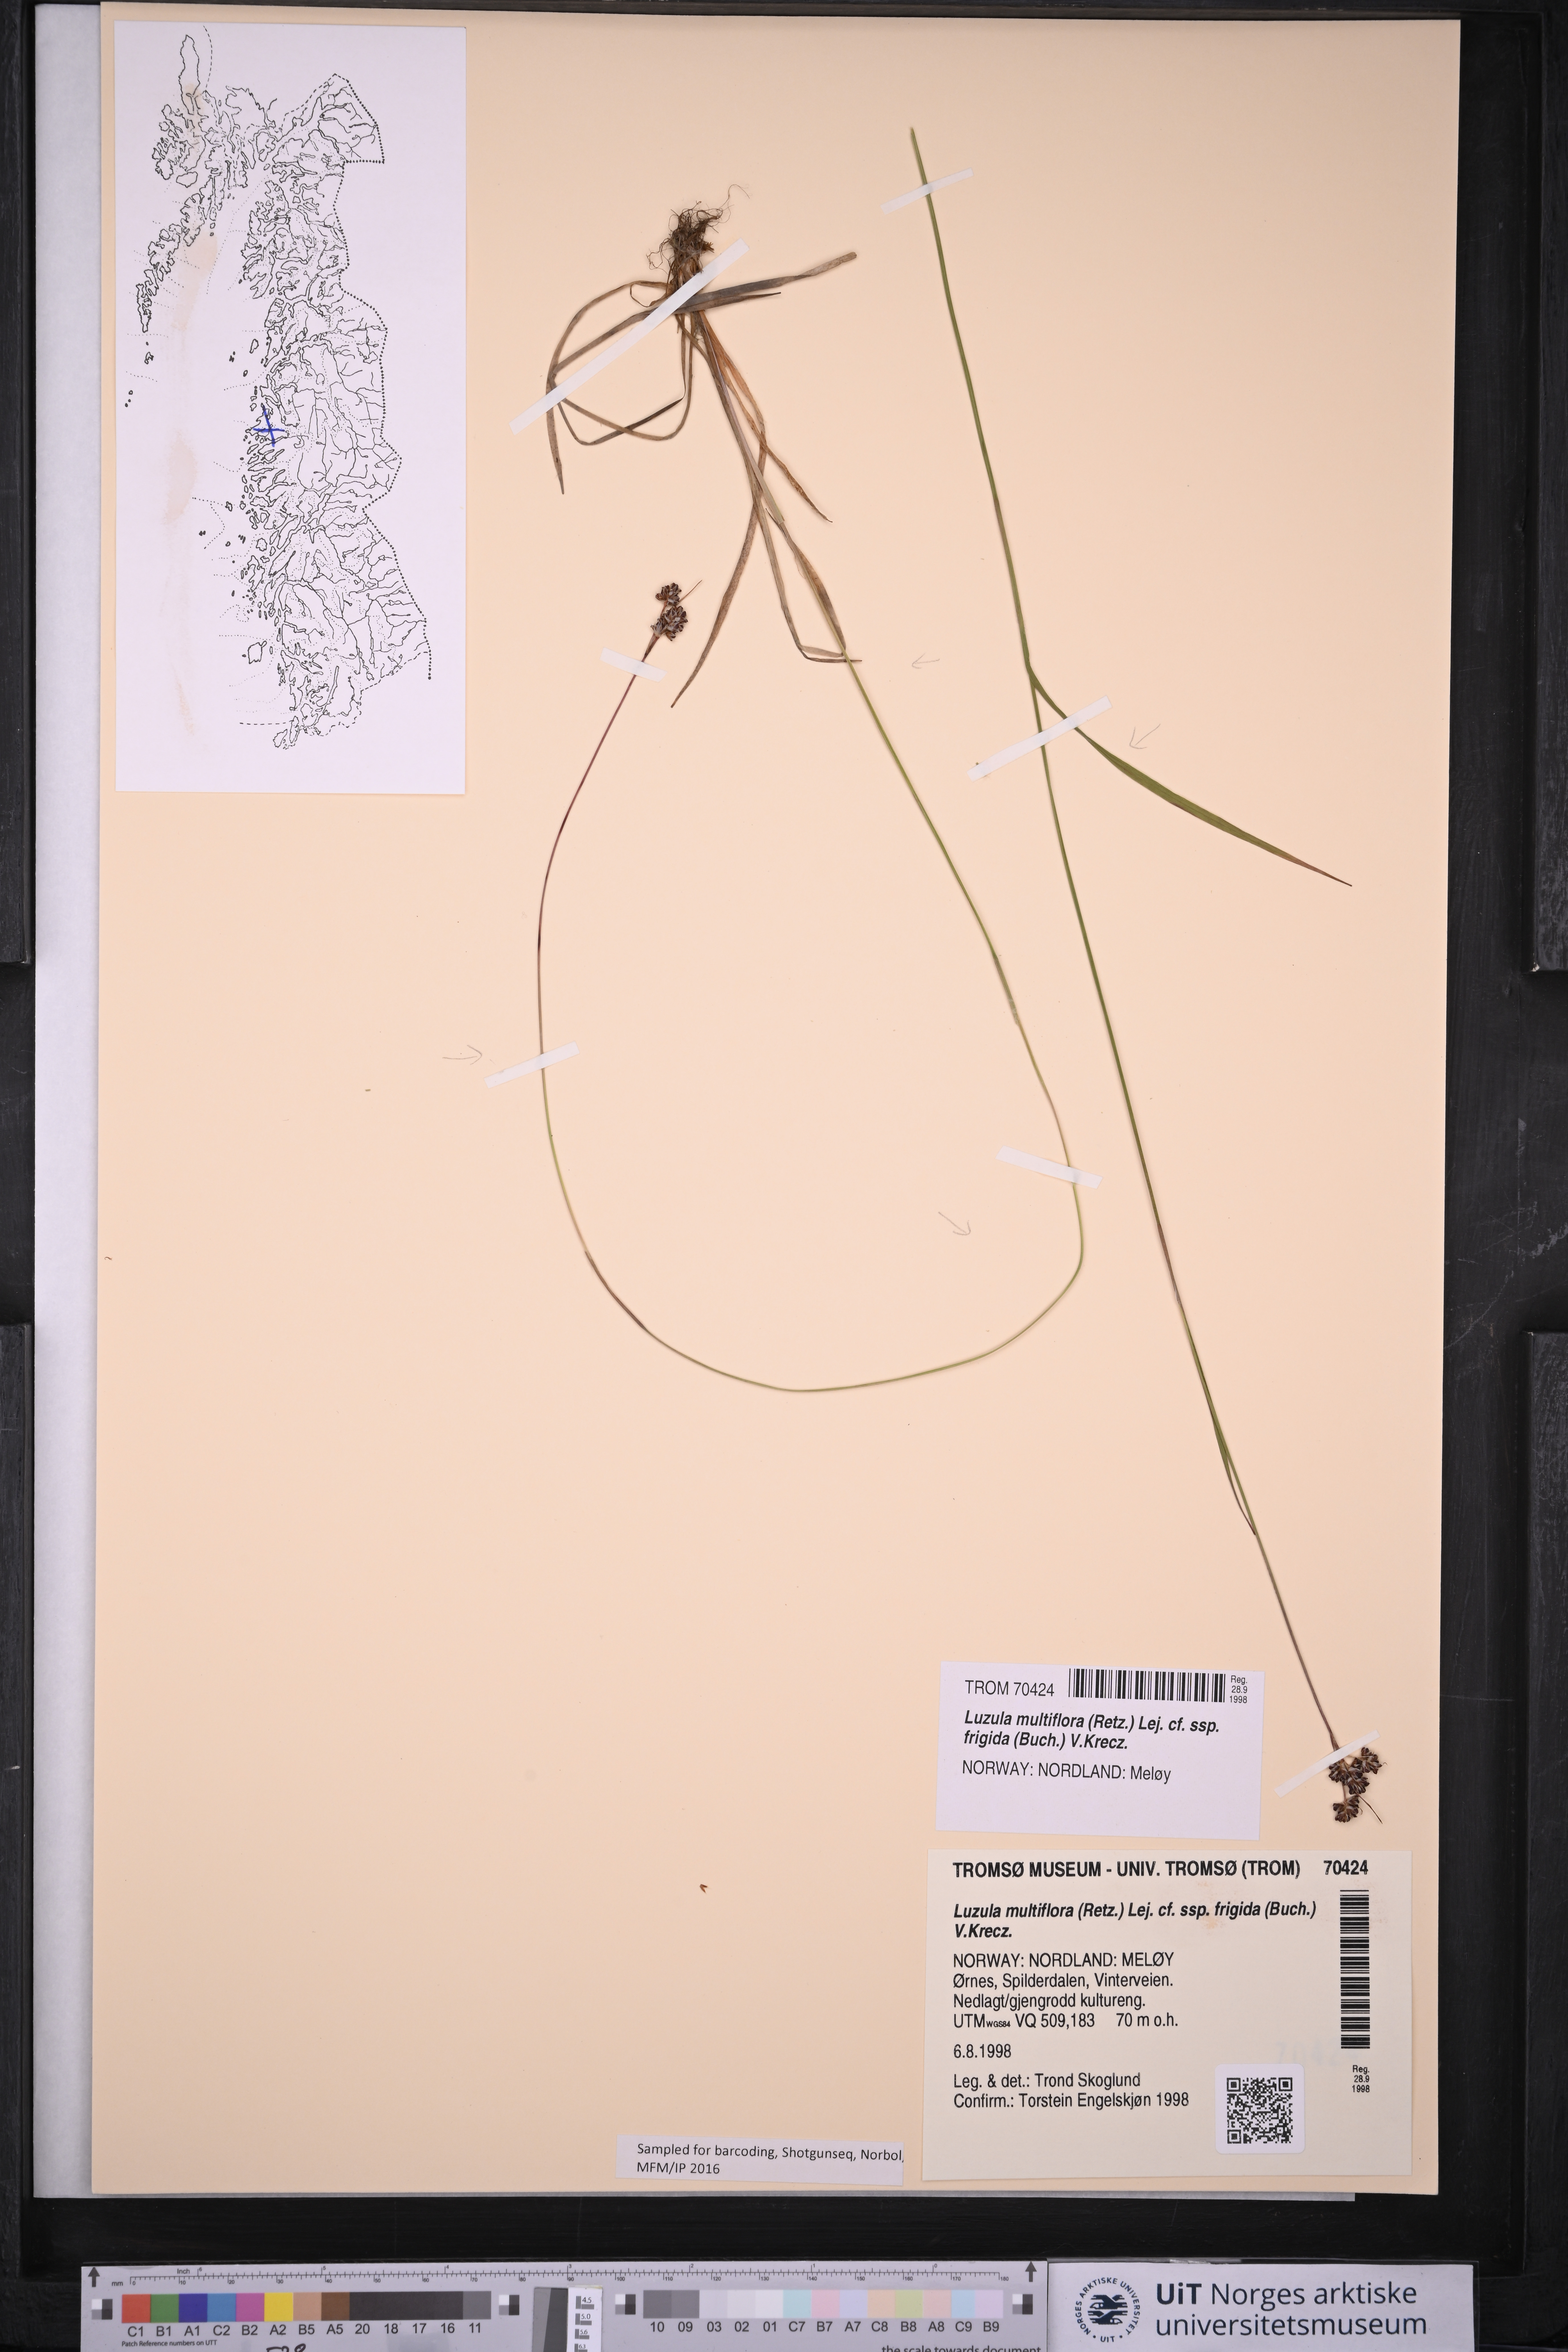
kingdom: Plantae
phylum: Tracheophyta
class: Liliopsida
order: Poales
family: Juncaceae
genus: Luzula
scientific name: Luzula multiflora
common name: Heath wood-rush
